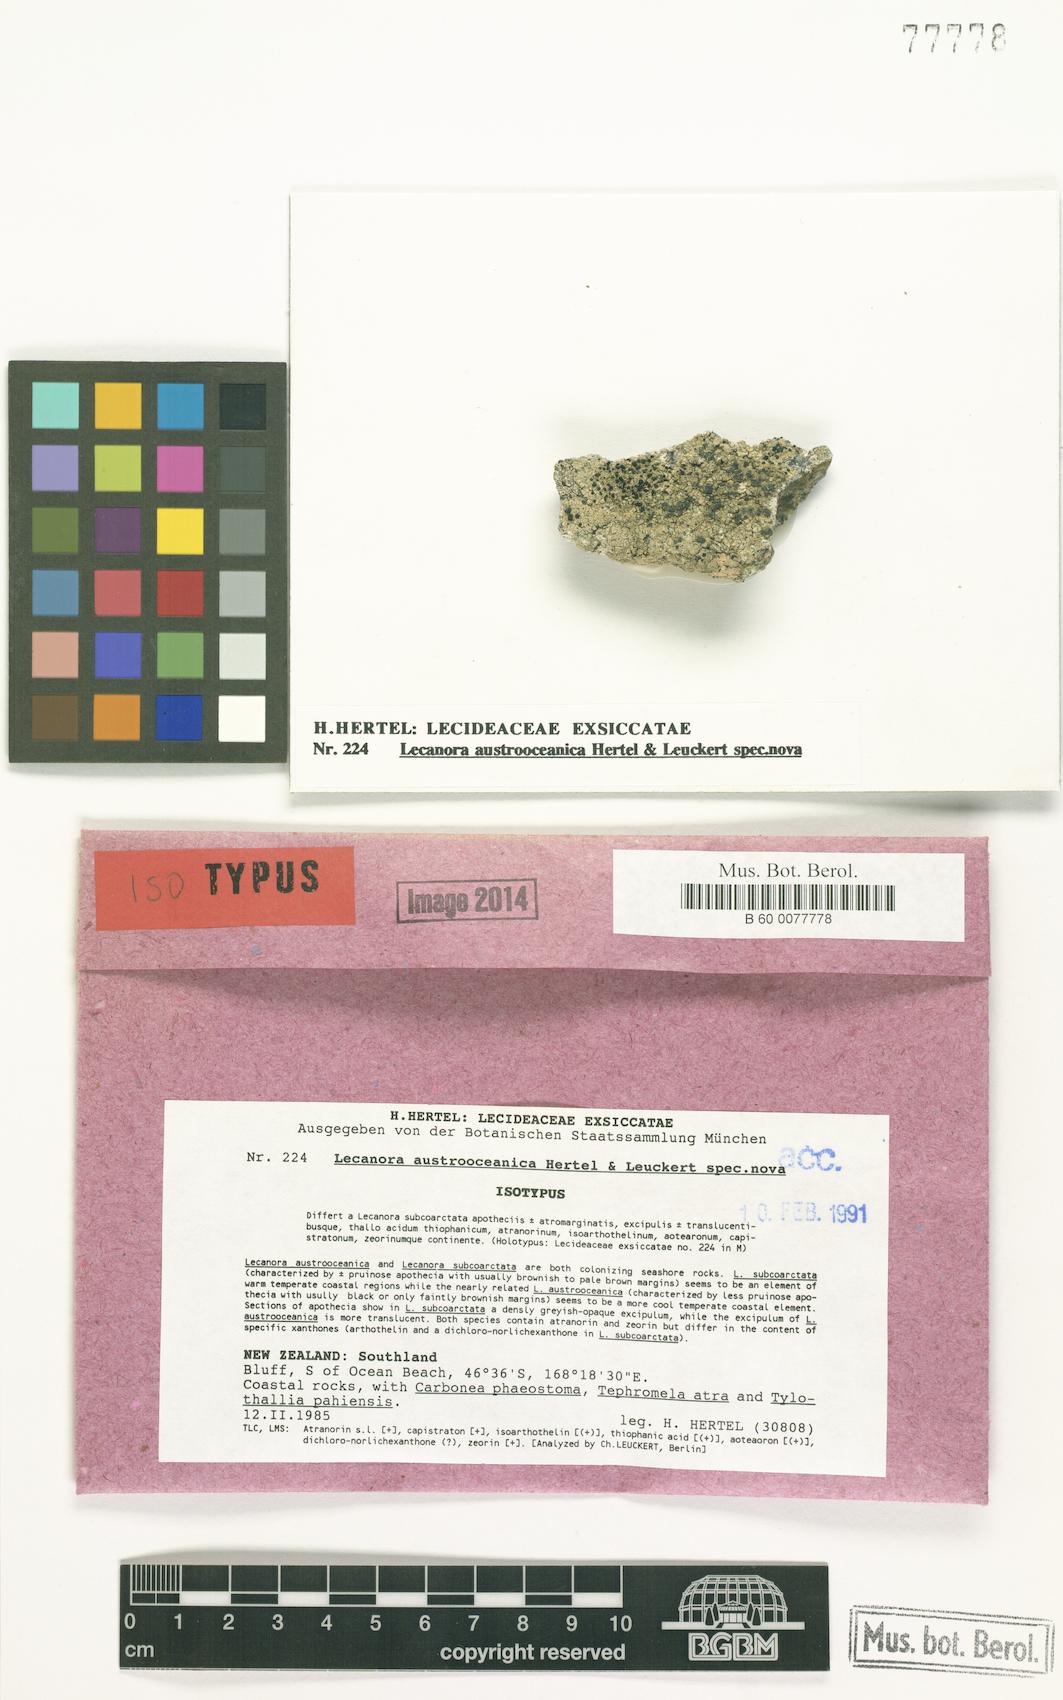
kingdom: Fungi
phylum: Ascomycota
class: Lecanoromycetes
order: Lecanorales
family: Lecanoraceae
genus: Lecanora
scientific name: Lecanora austro-oceanica
